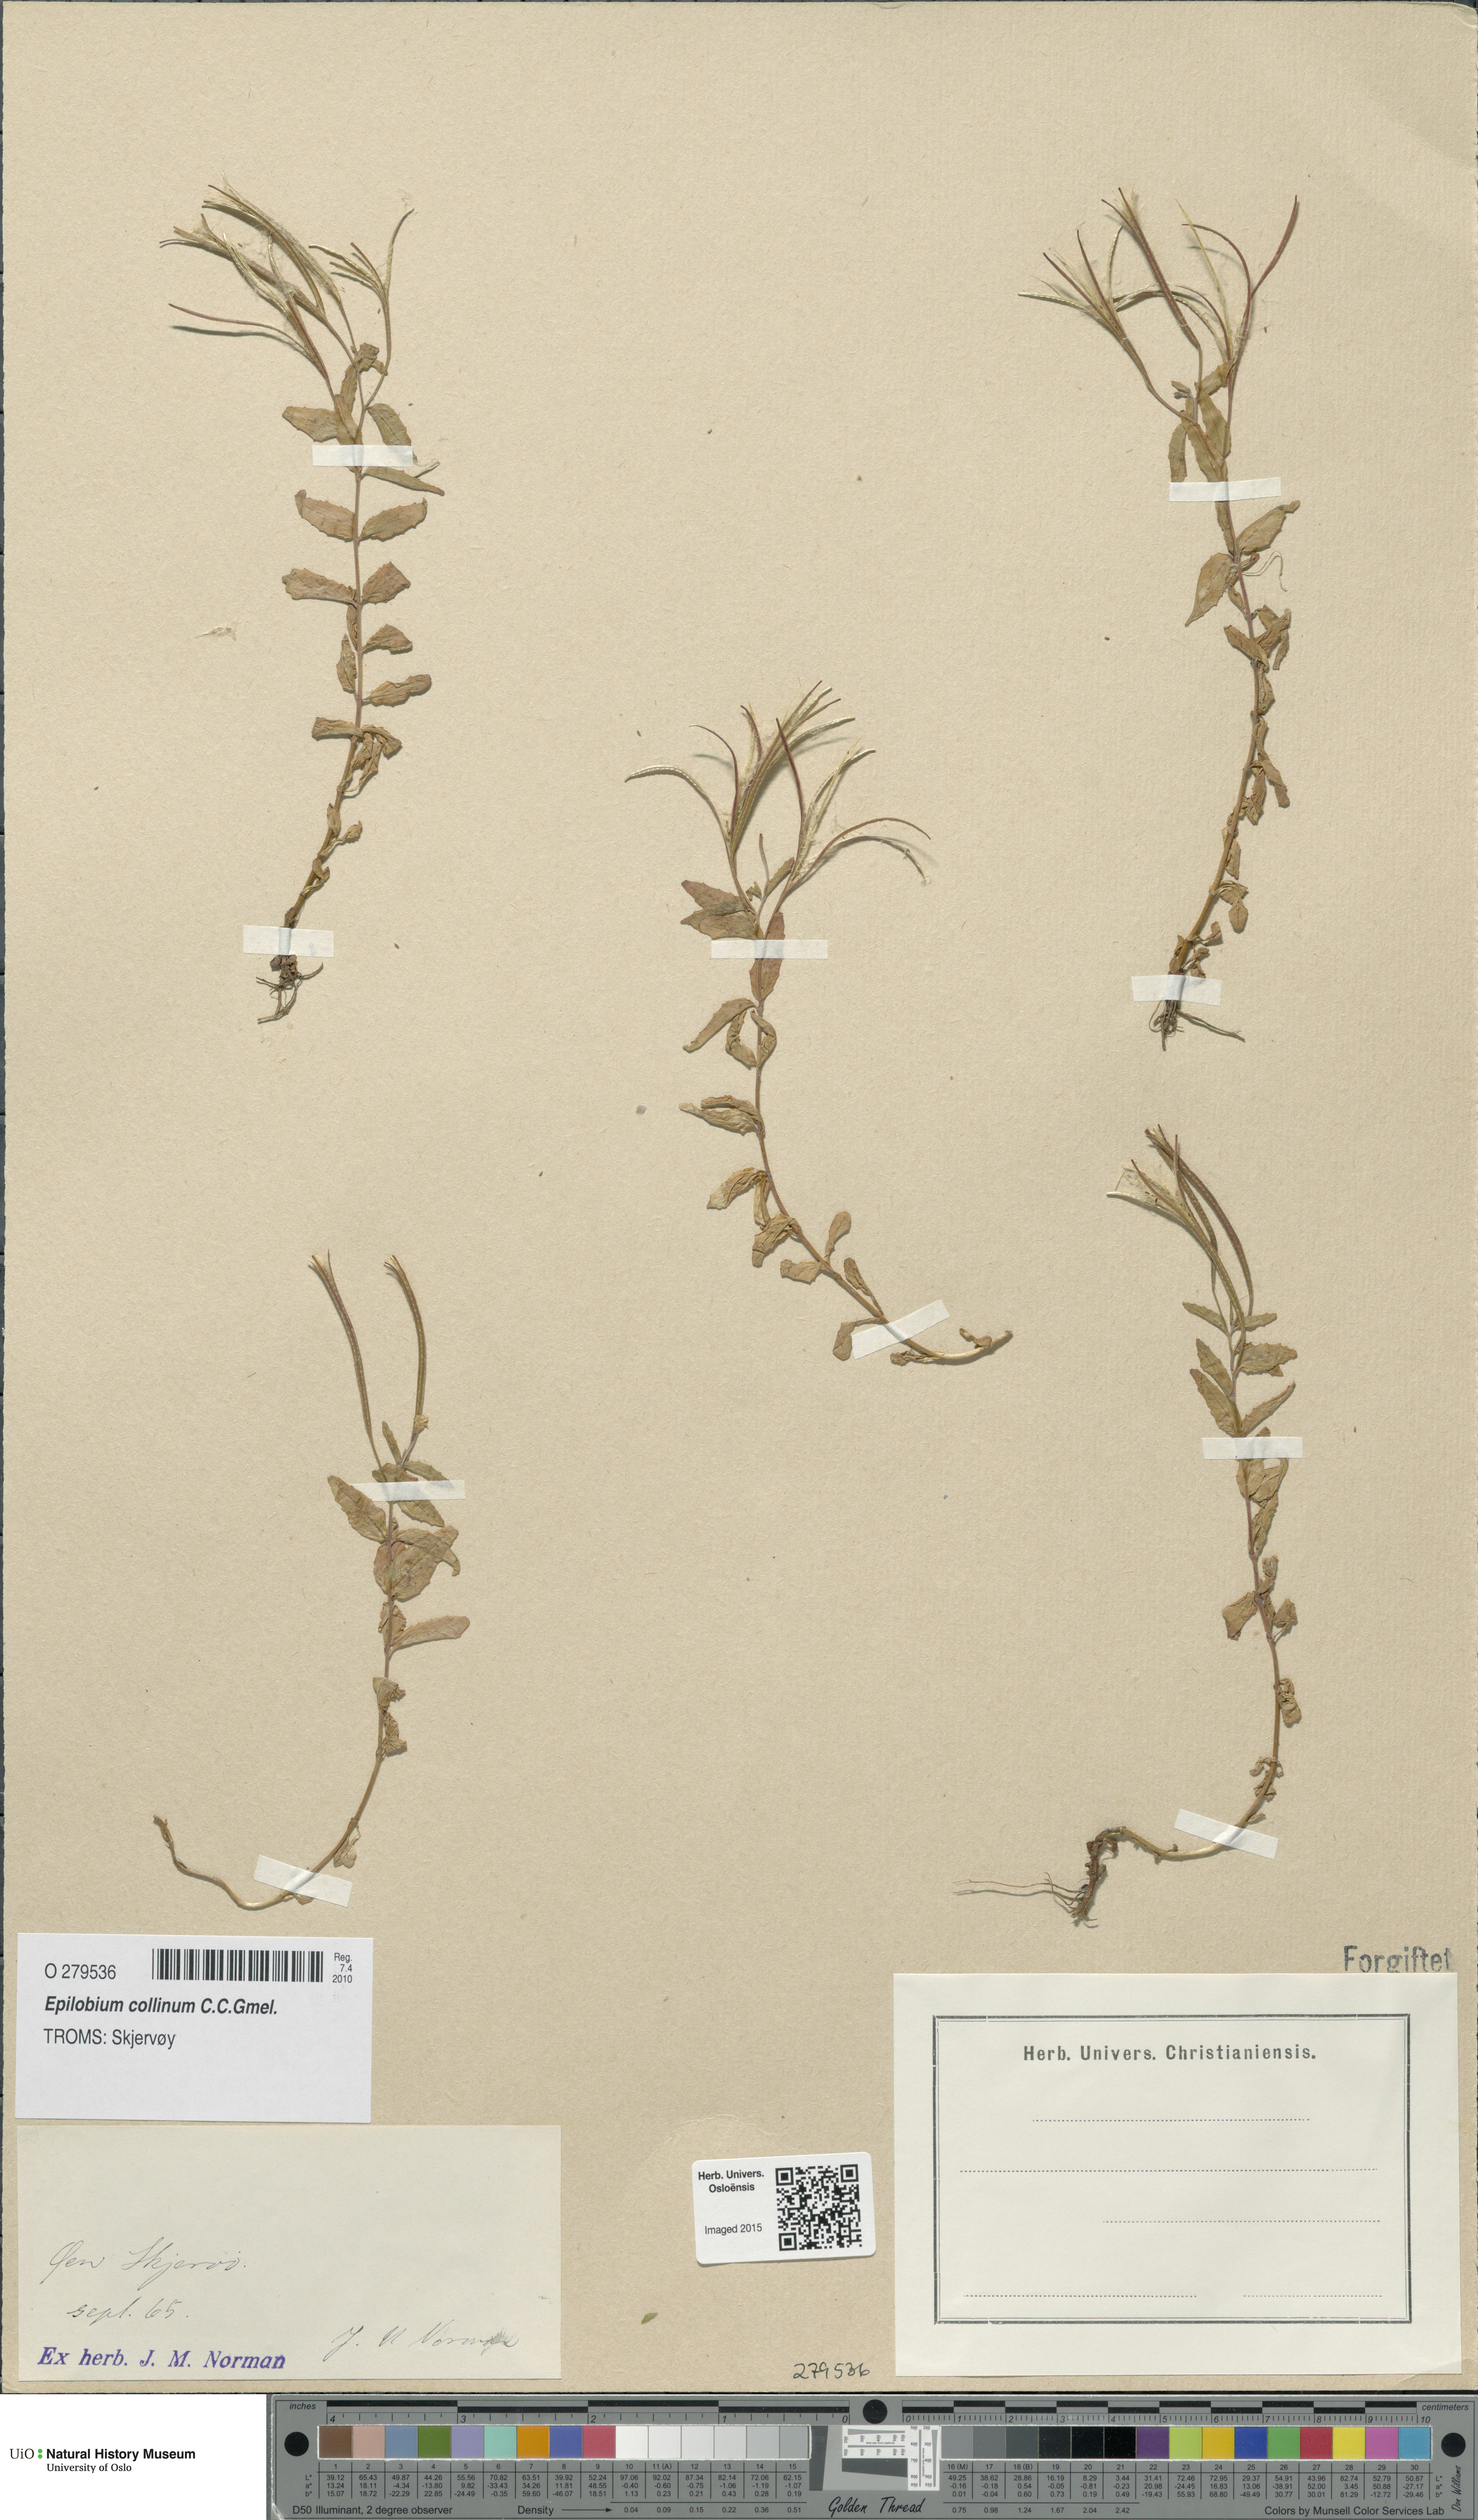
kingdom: Plantae
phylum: Tracheophyta
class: Magnoliopsida
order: Myrtales
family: Onagraceae
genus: Epilobium
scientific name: Epilobium collinum
